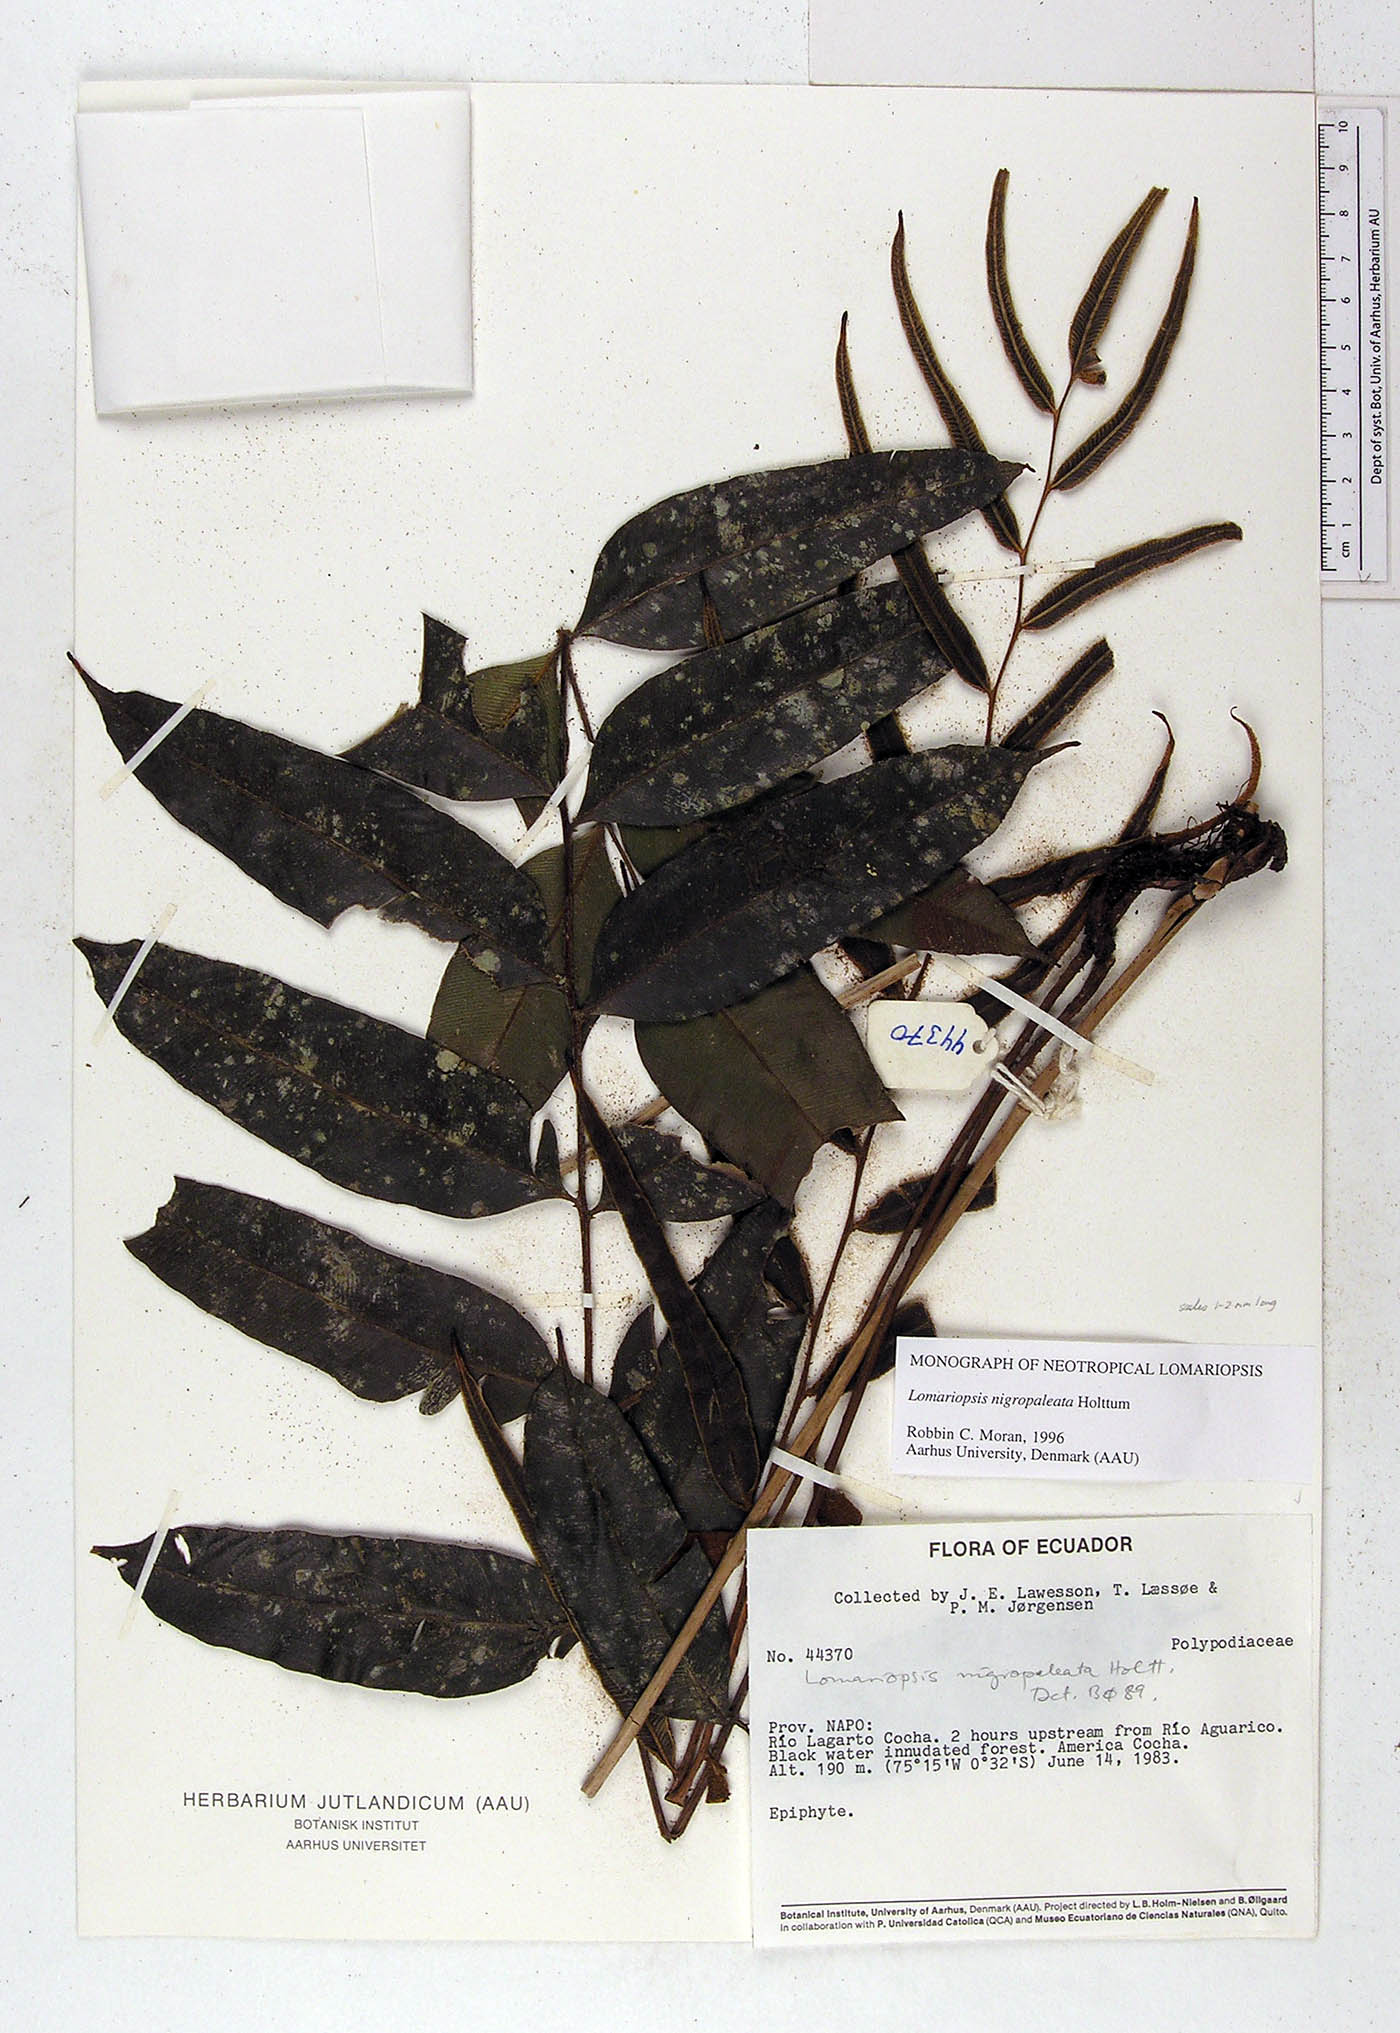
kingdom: Plantae
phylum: Tracheophyta
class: Polypodiopsida
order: Polypodiales
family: Lomariopsidaceae
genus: Lomariopsis
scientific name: Lomariopsis nigropaleata
